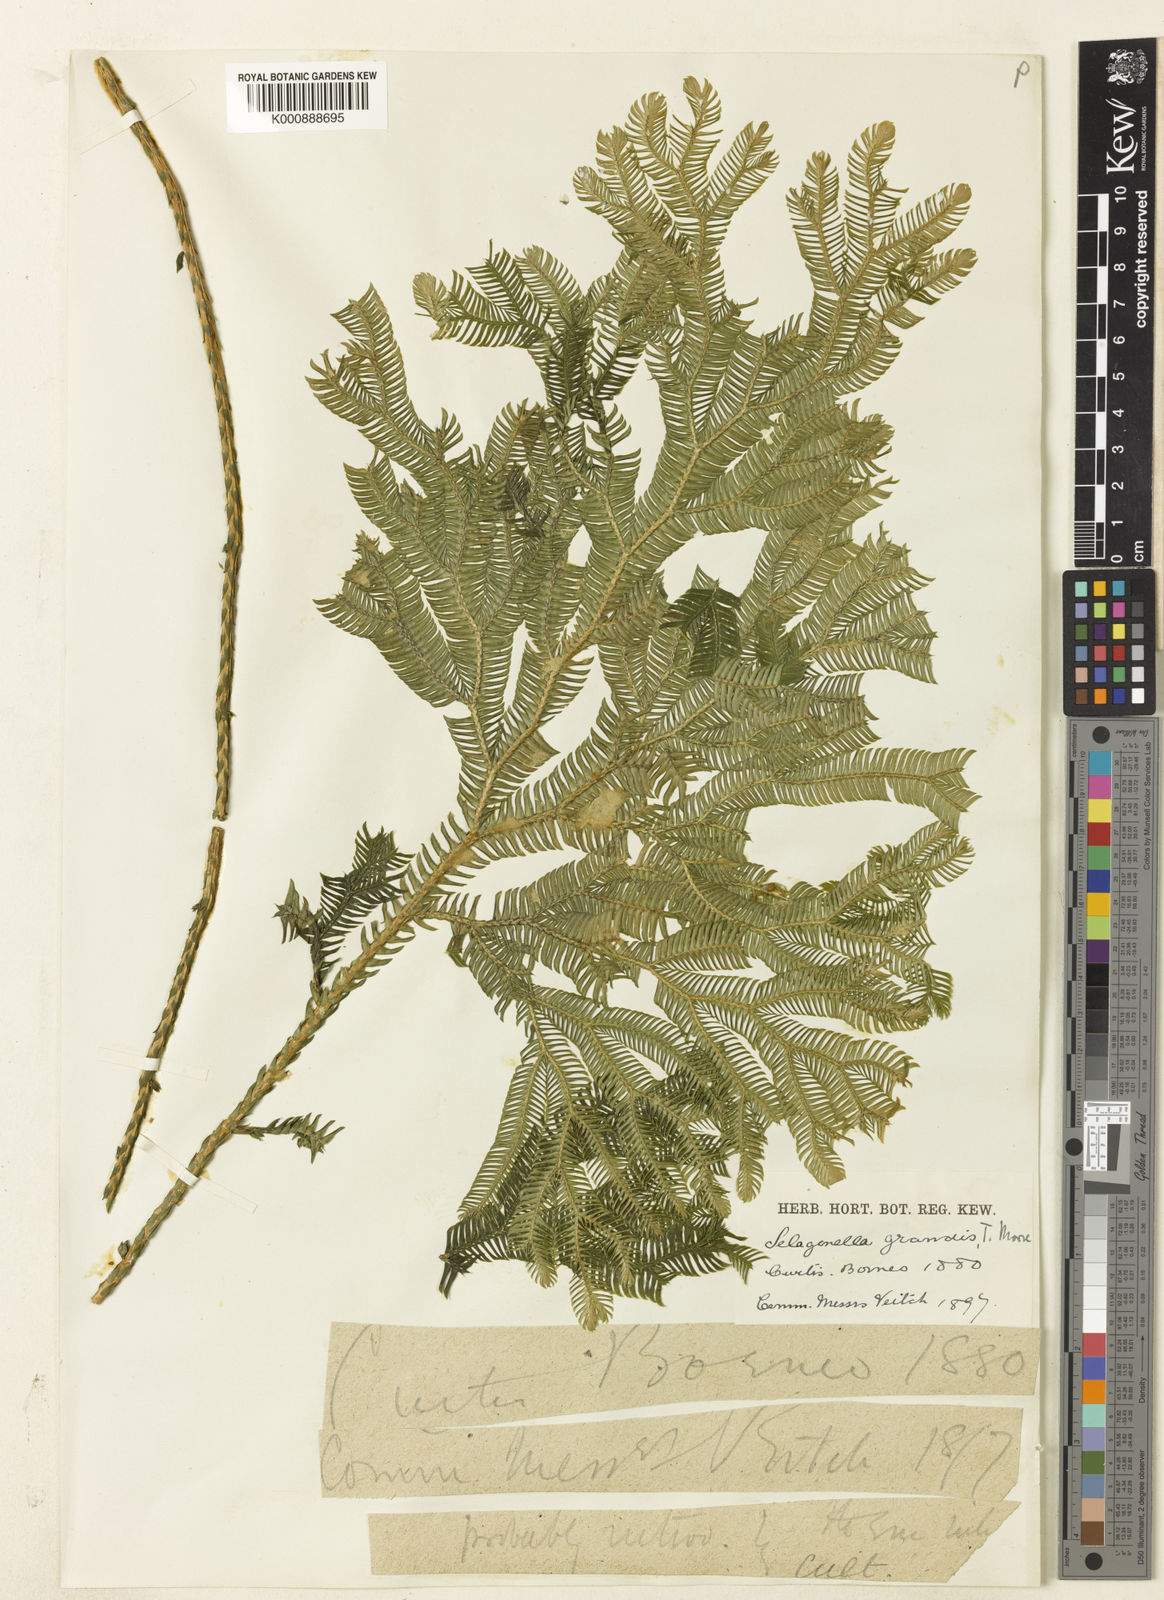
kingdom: Plantae
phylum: Tracheophyta
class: Lycopodiopsida
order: Selaginellales
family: Selaginellaceae
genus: Selaginella
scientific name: Selaginella grandis
